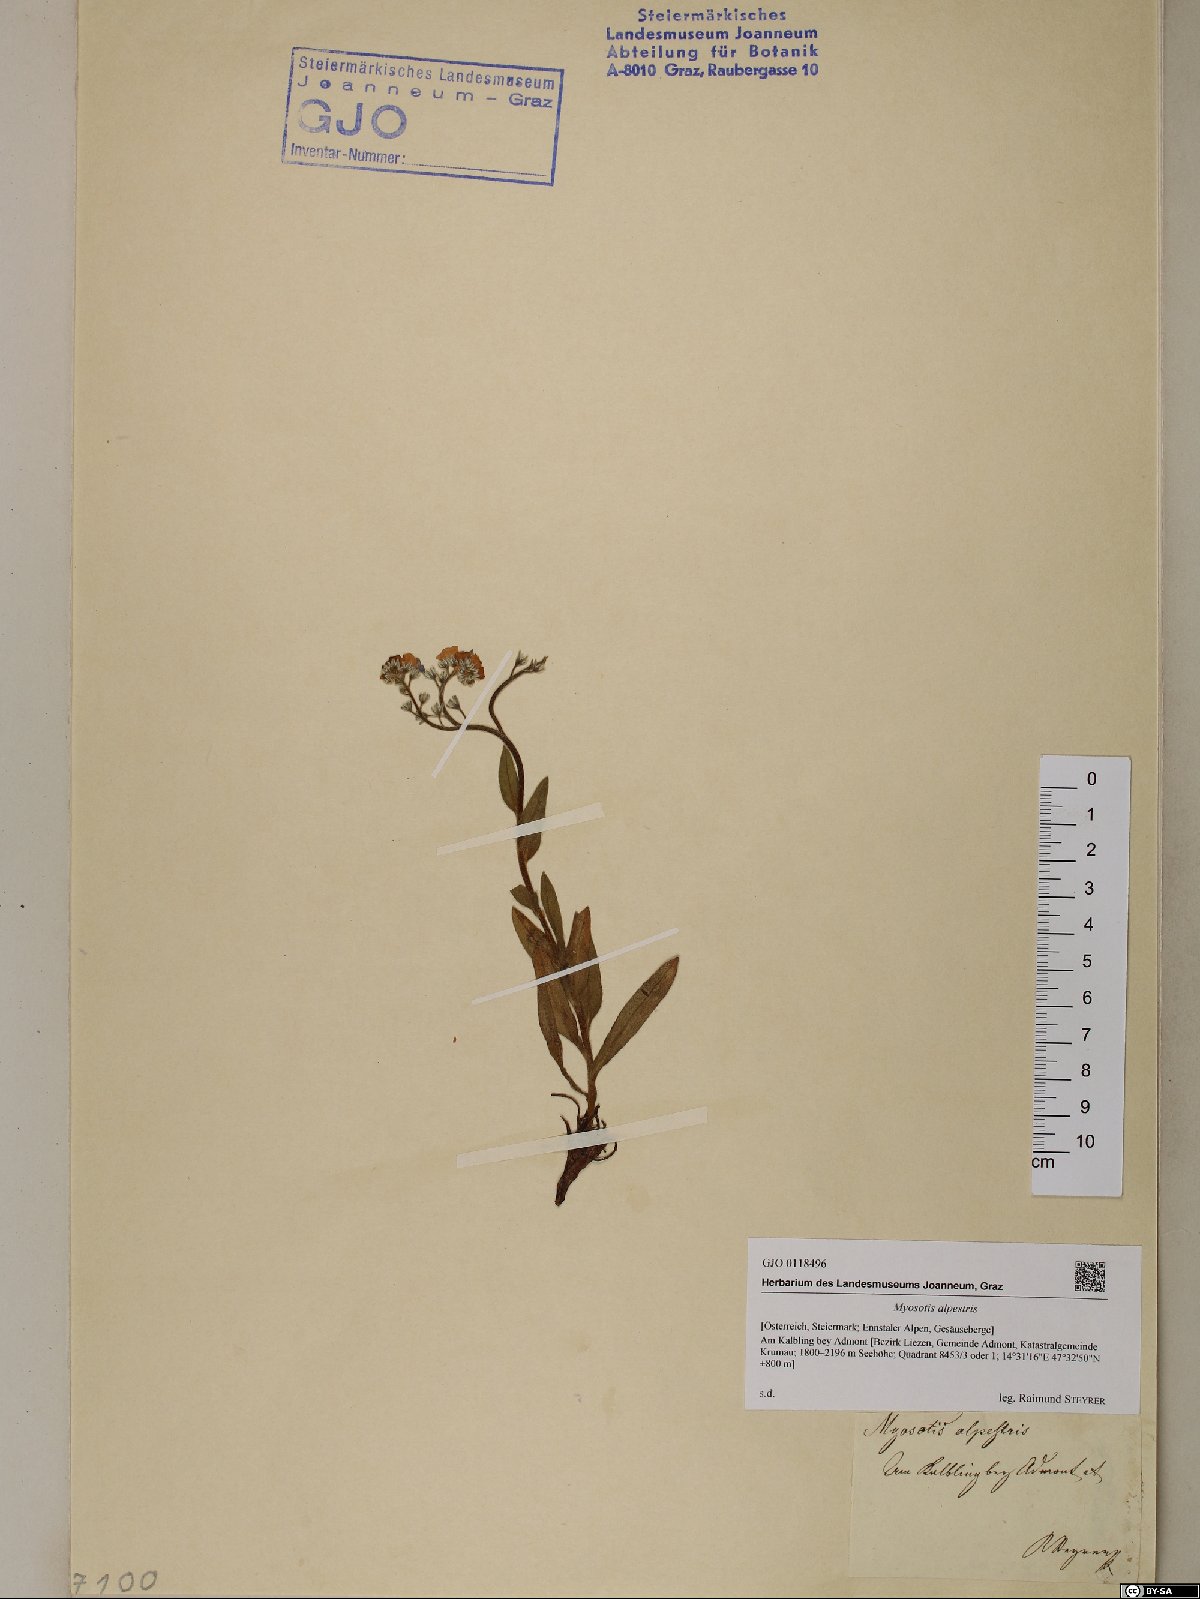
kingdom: Plantae
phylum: Tracheophyta
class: Magnoliopsida
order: Boraginales
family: Boraginaceae
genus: Myosotis
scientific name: Myosotis alpestris
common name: Alpine forget-me-not
